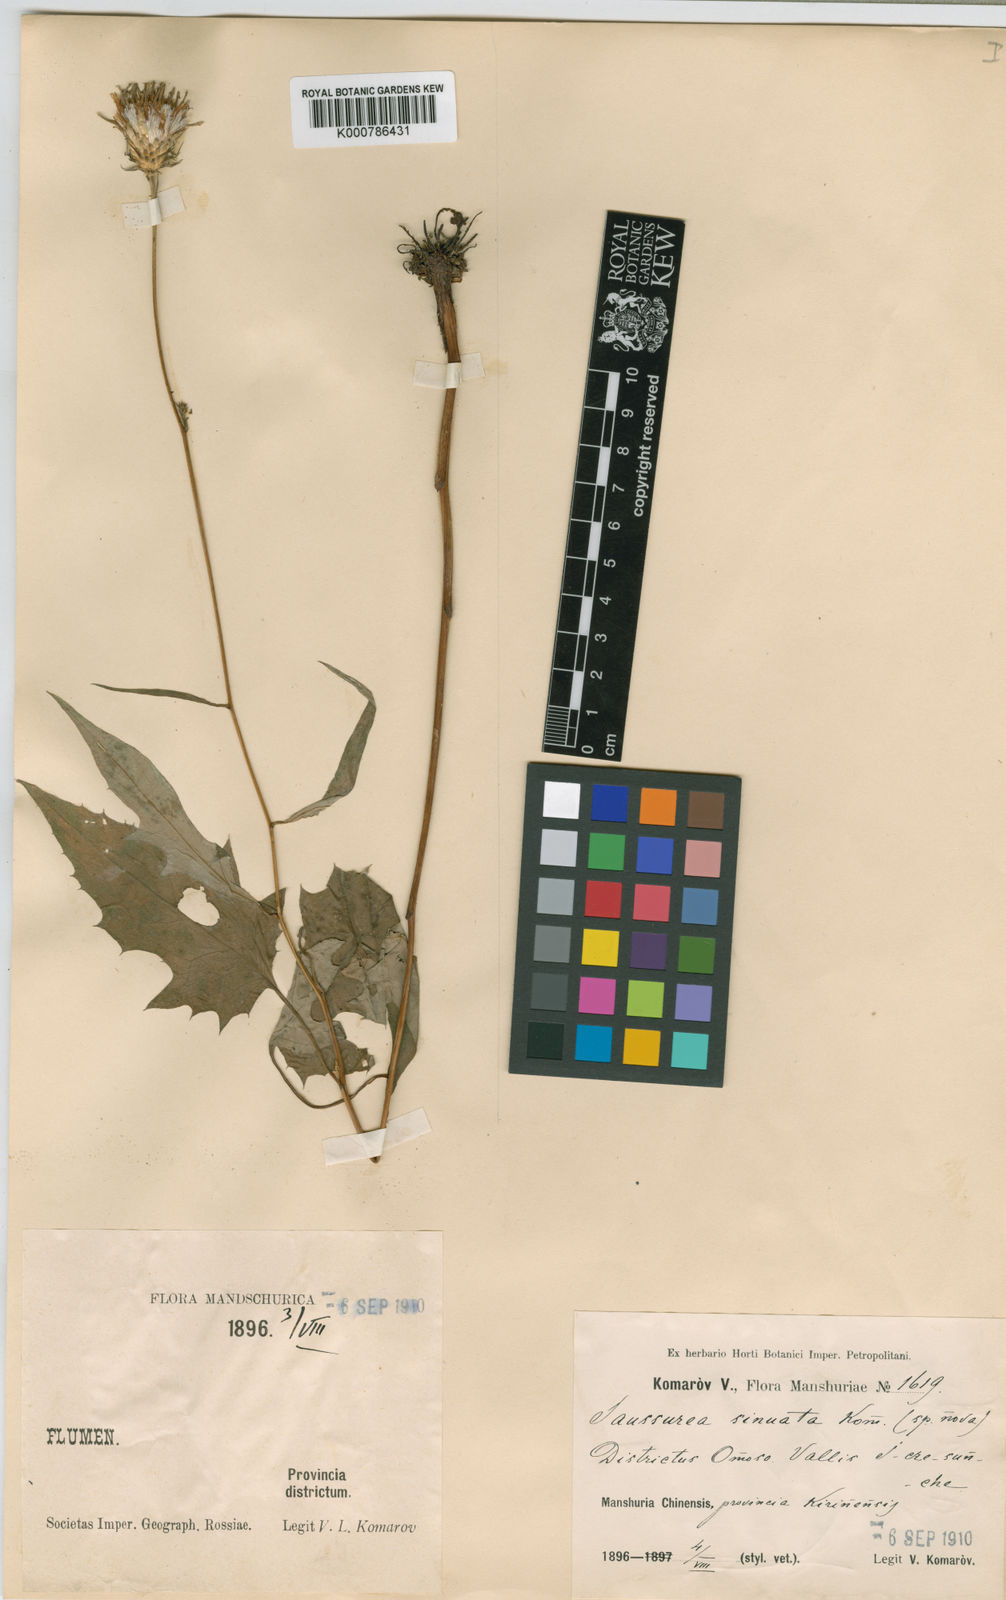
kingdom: Plantae
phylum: Tracheophyta
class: Magnoliopsida
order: Asterales
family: Asteraceae
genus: Saussurea
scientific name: Saussurea sinuata
